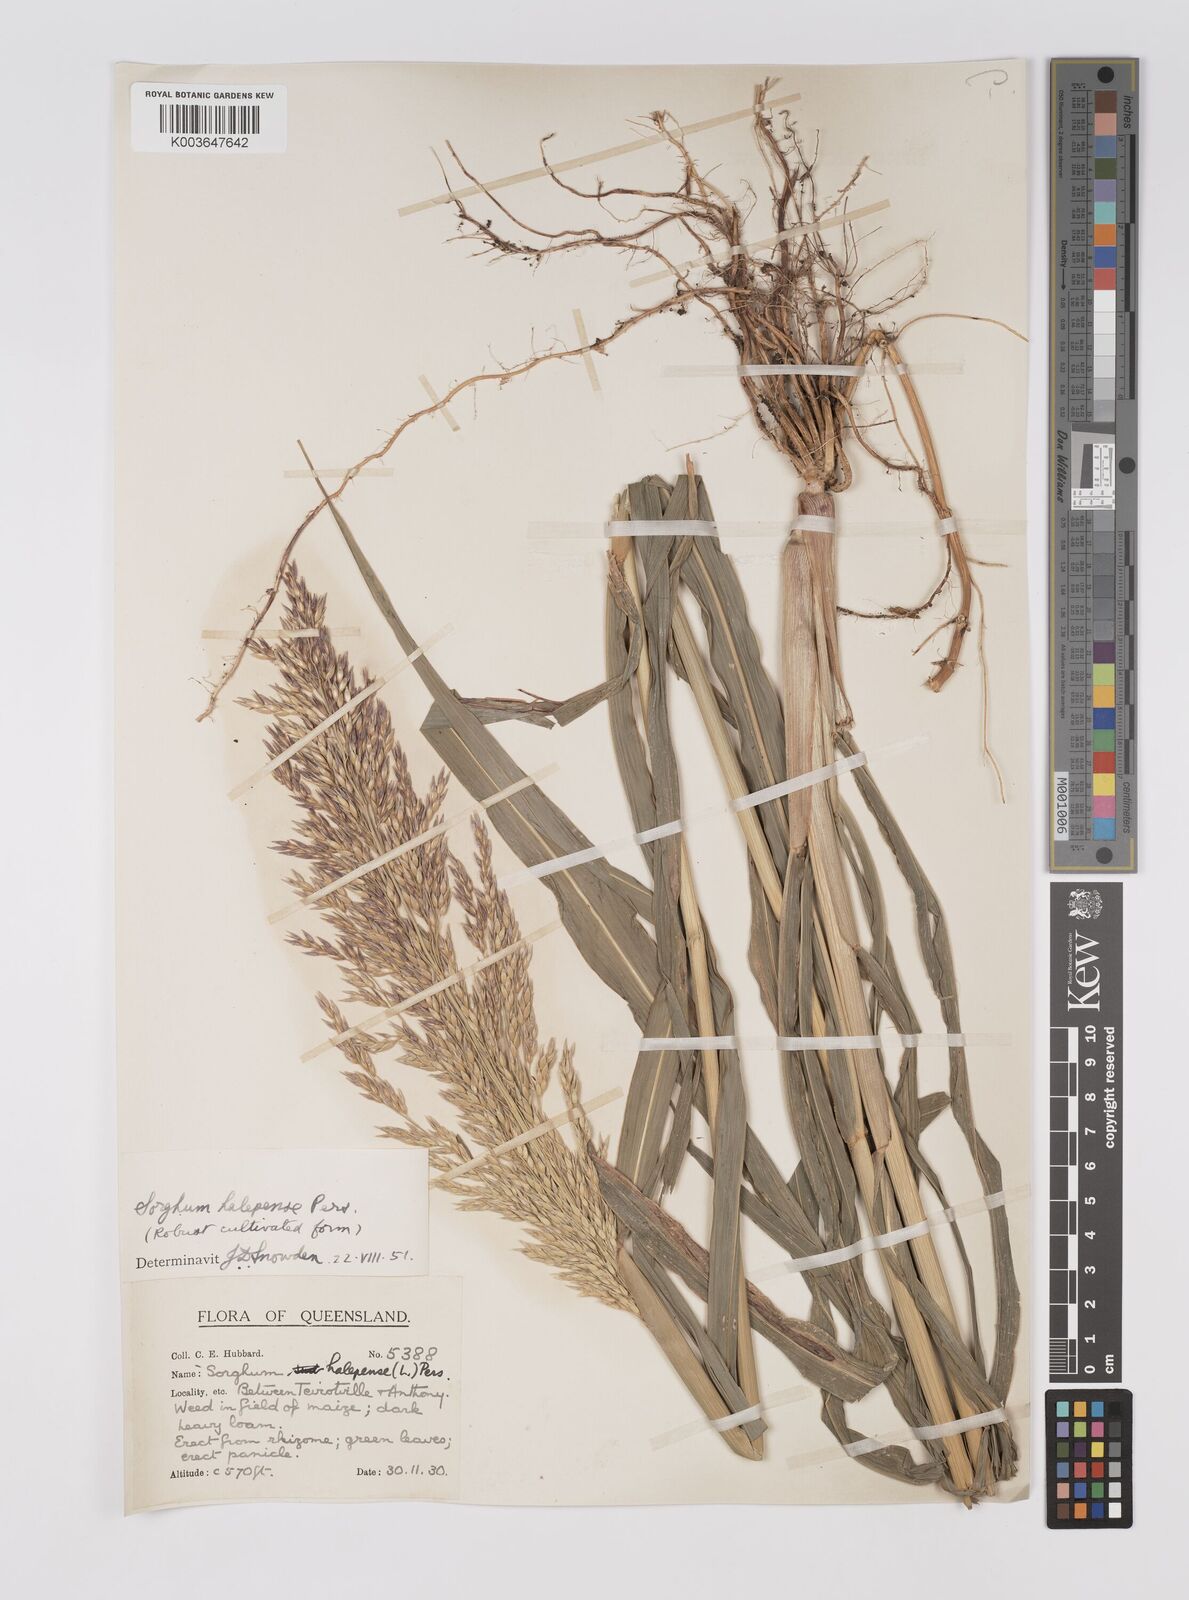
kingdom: Plantae
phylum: Tracheophyta
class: Liliopsida
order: Poales
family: Poaceae
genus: Sorghum
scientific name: Sorghum halepense
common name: Johnson-grass
